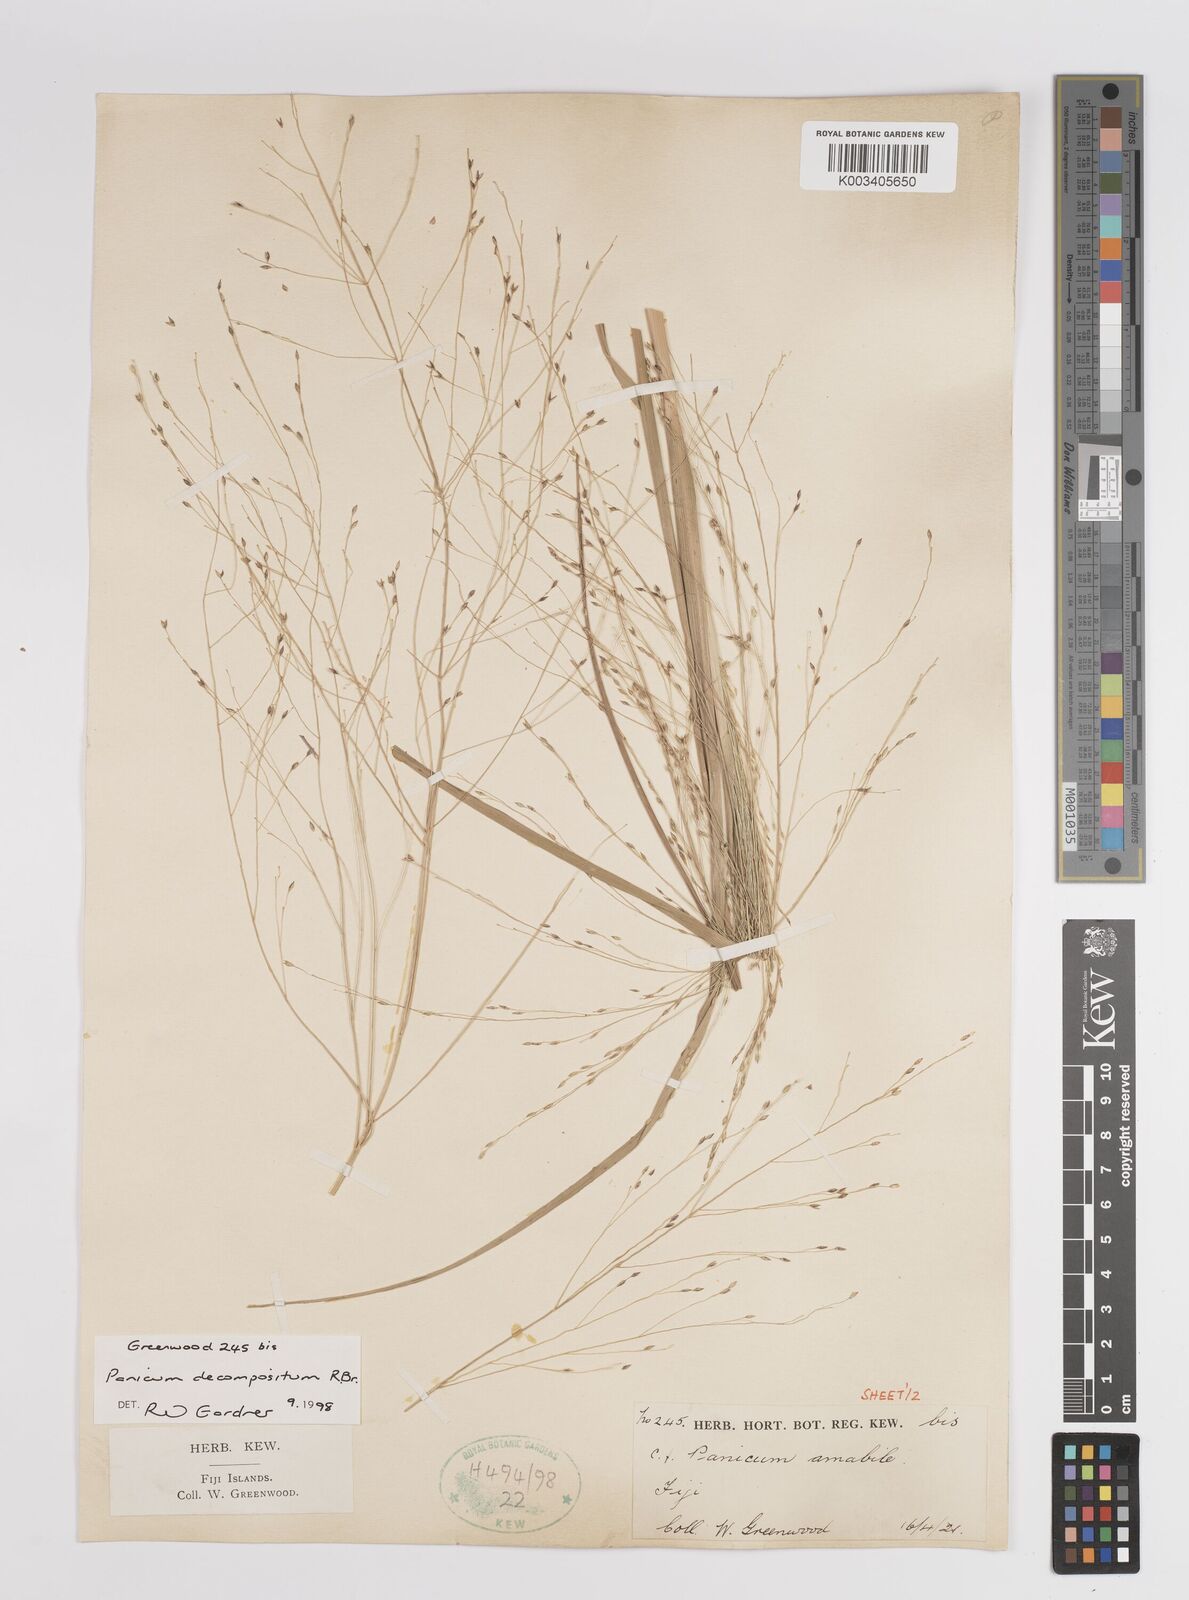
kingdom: Plantae
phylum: Tracheophyta
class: Liliopsida
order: Poales
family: Poaceae
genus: Panicum
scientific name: Panicum decompositum
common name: Australian millet
